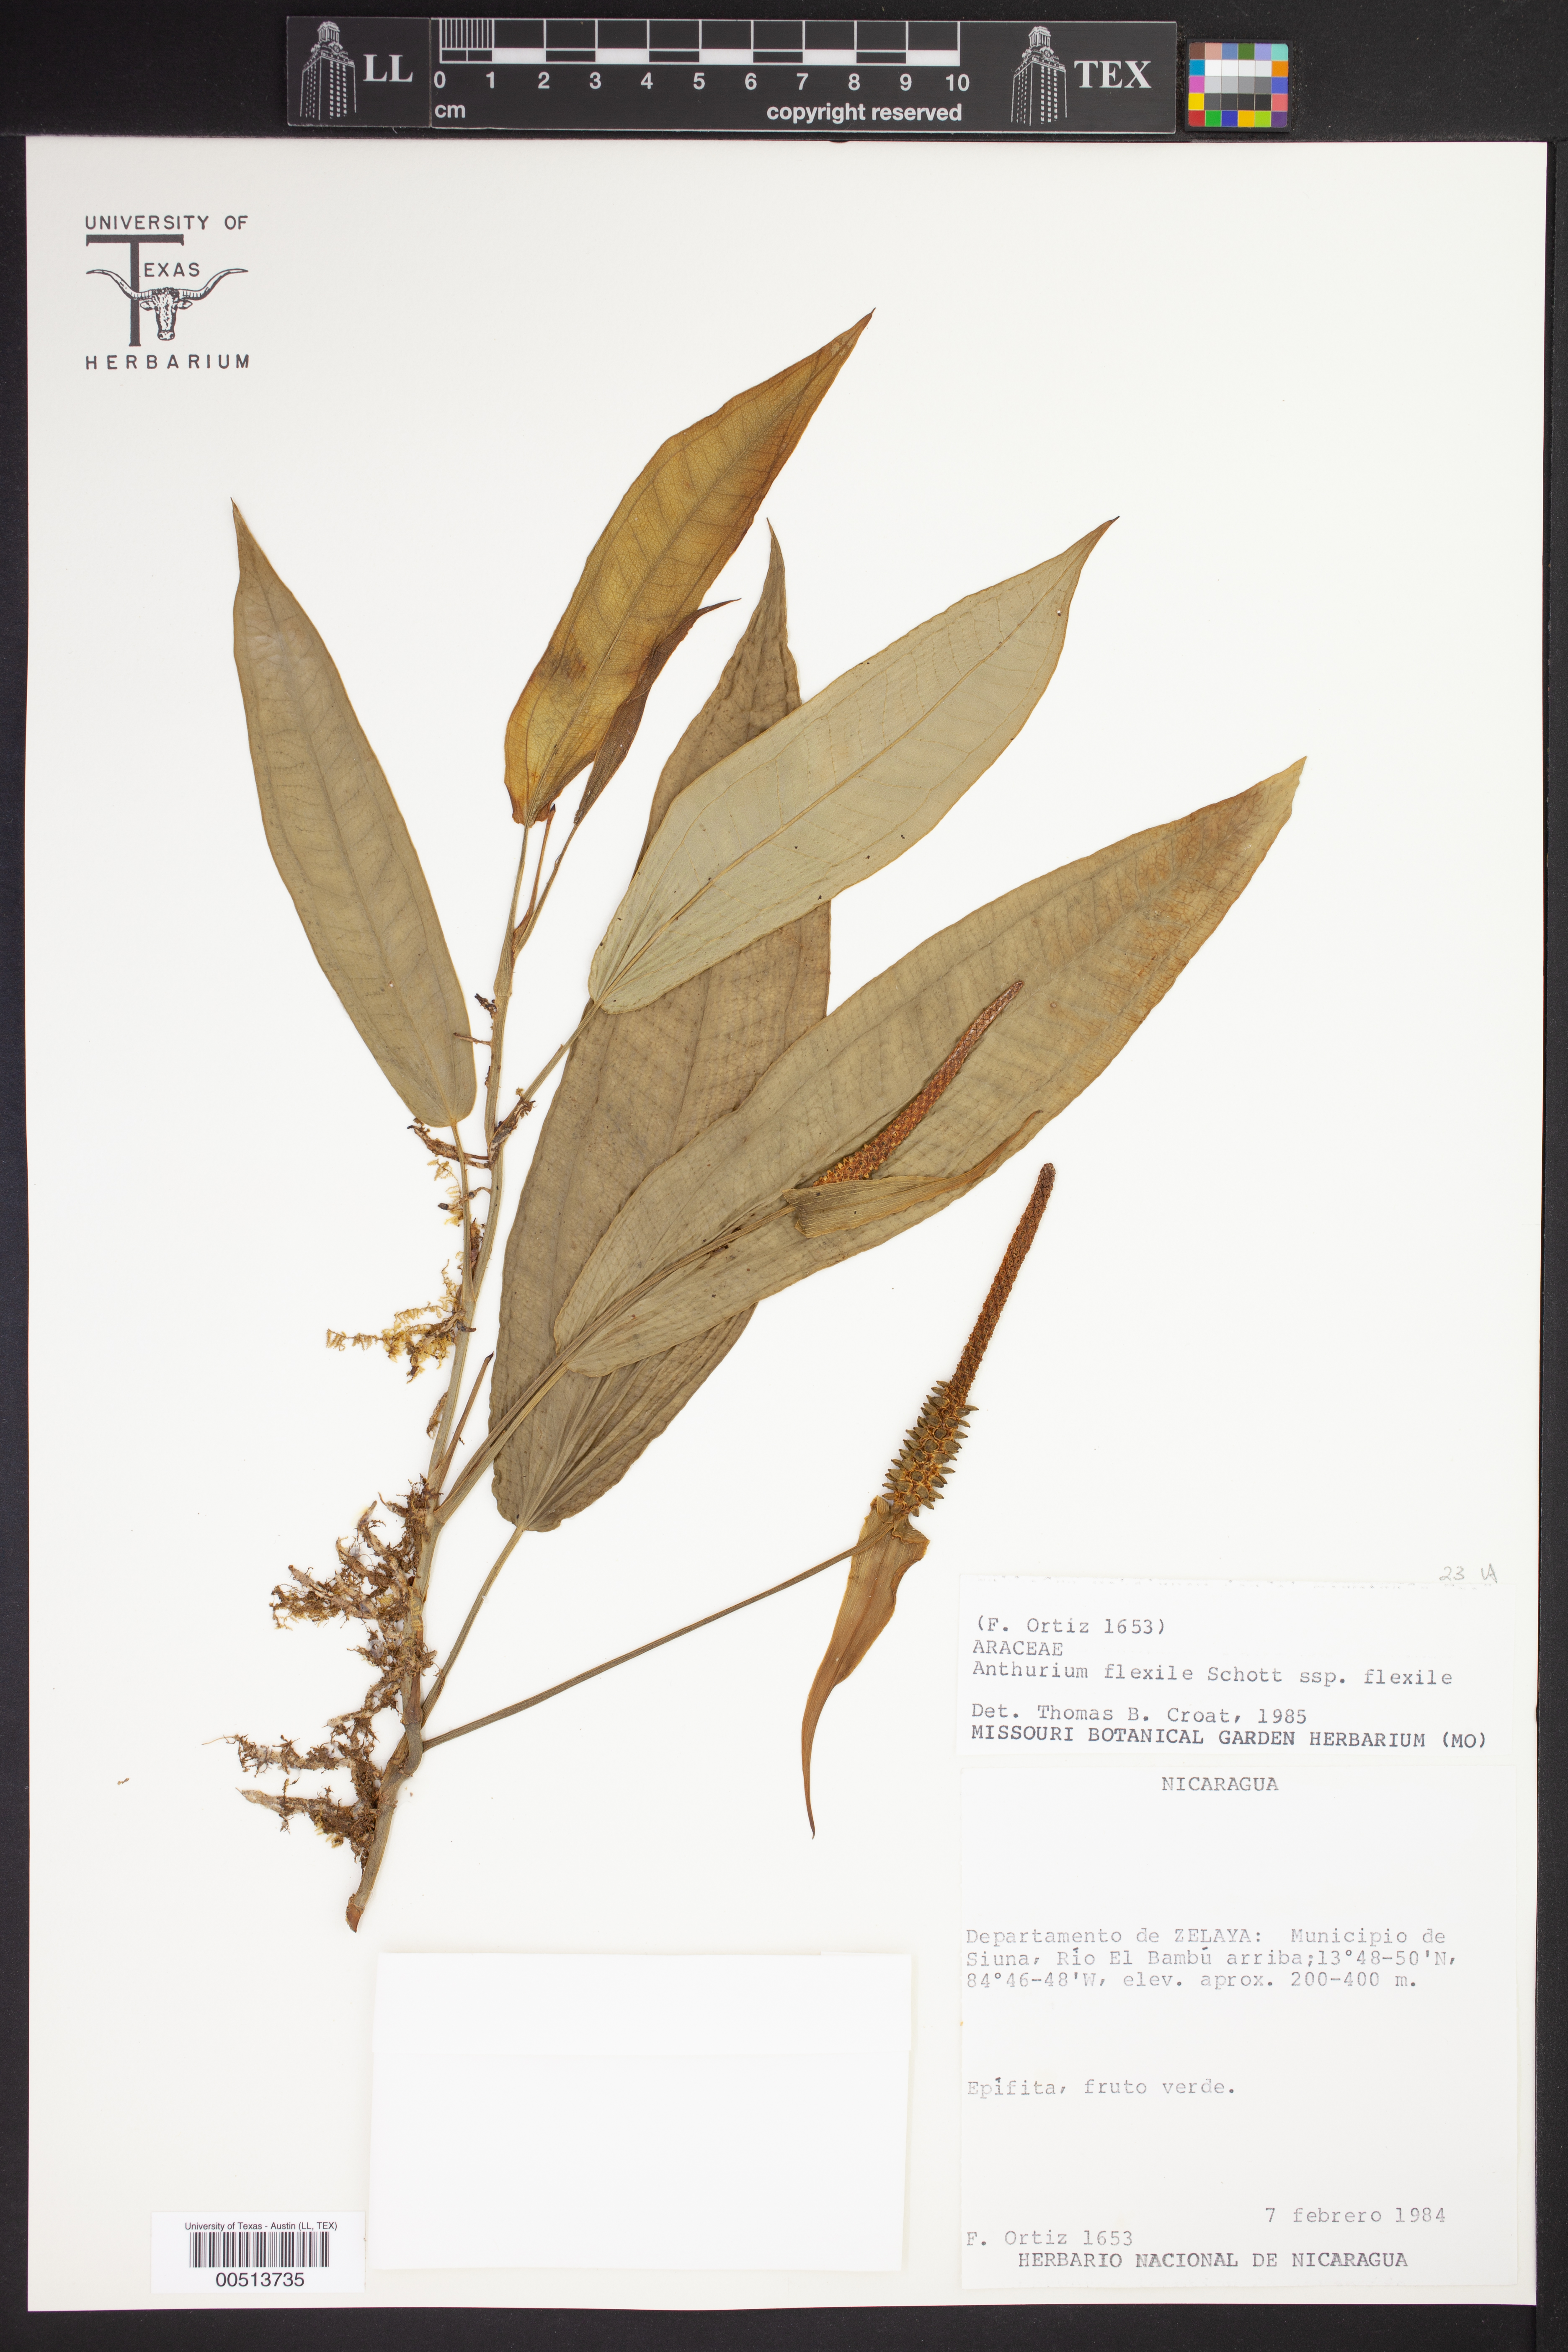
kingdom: Plantae
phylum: Tracheophyta
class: Liliopsida
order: Alismatales
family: Araceae
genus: Anthurium
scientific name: Anthurium flexile
